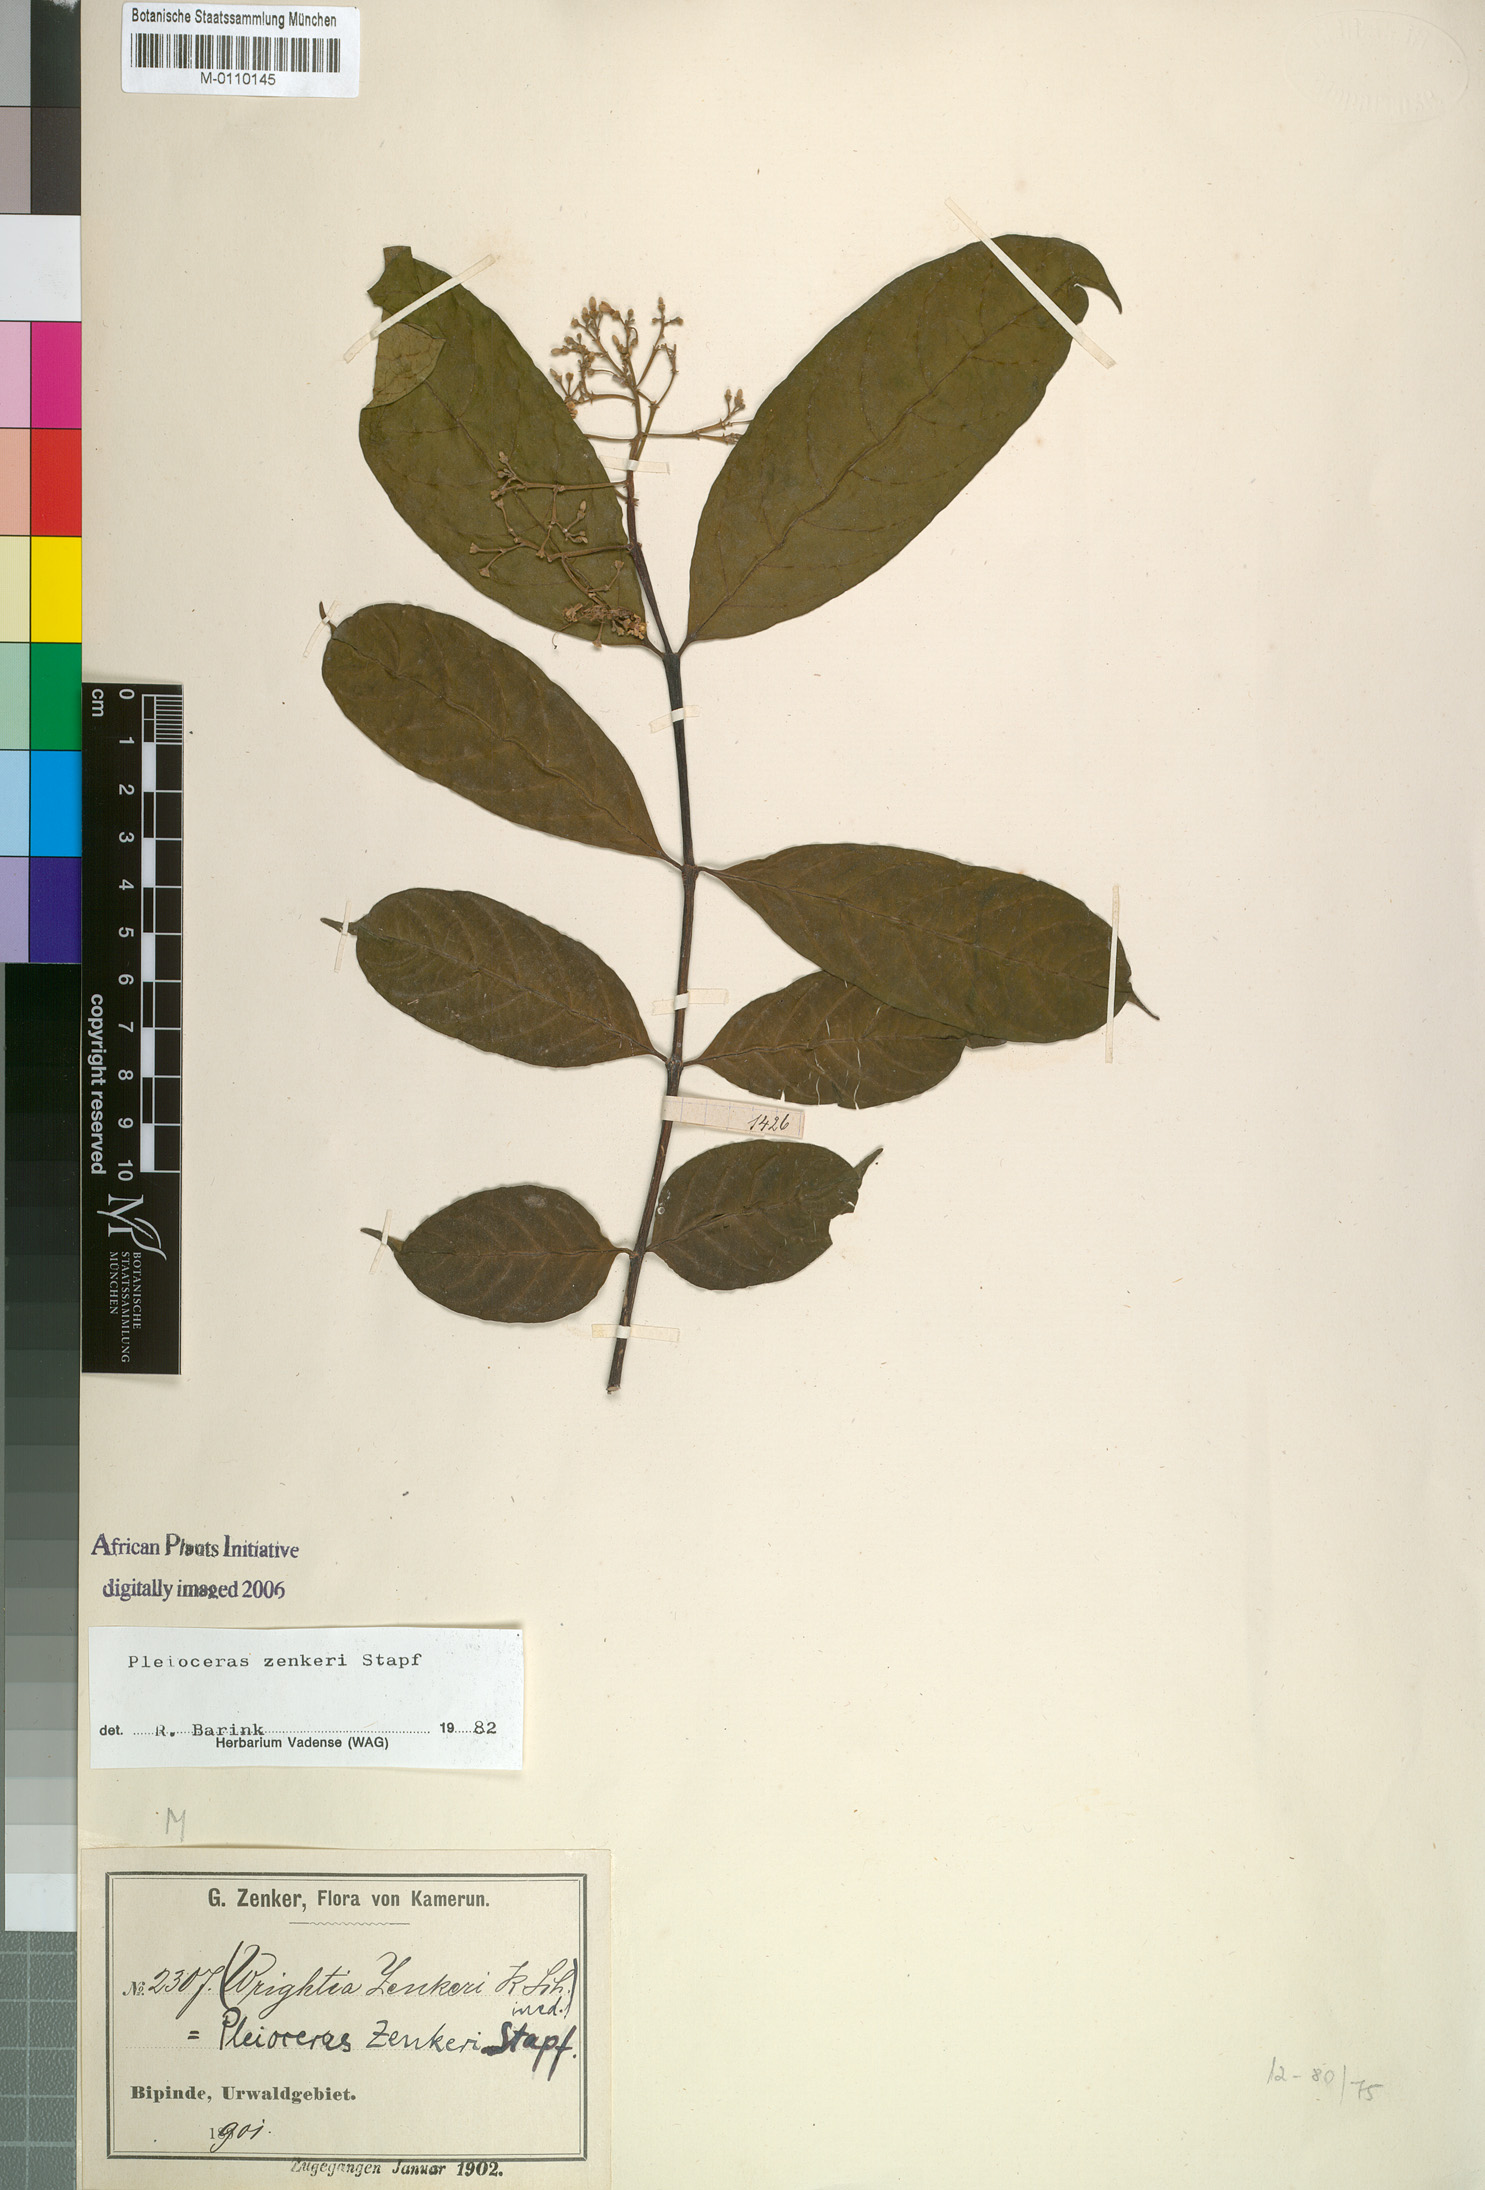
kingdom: Plantae
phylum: Tracheophyta
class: Magnoliopsida
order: Gentianales
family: Apocynaceae
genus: Pleioceras
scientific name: Pleioceras zenkeri
